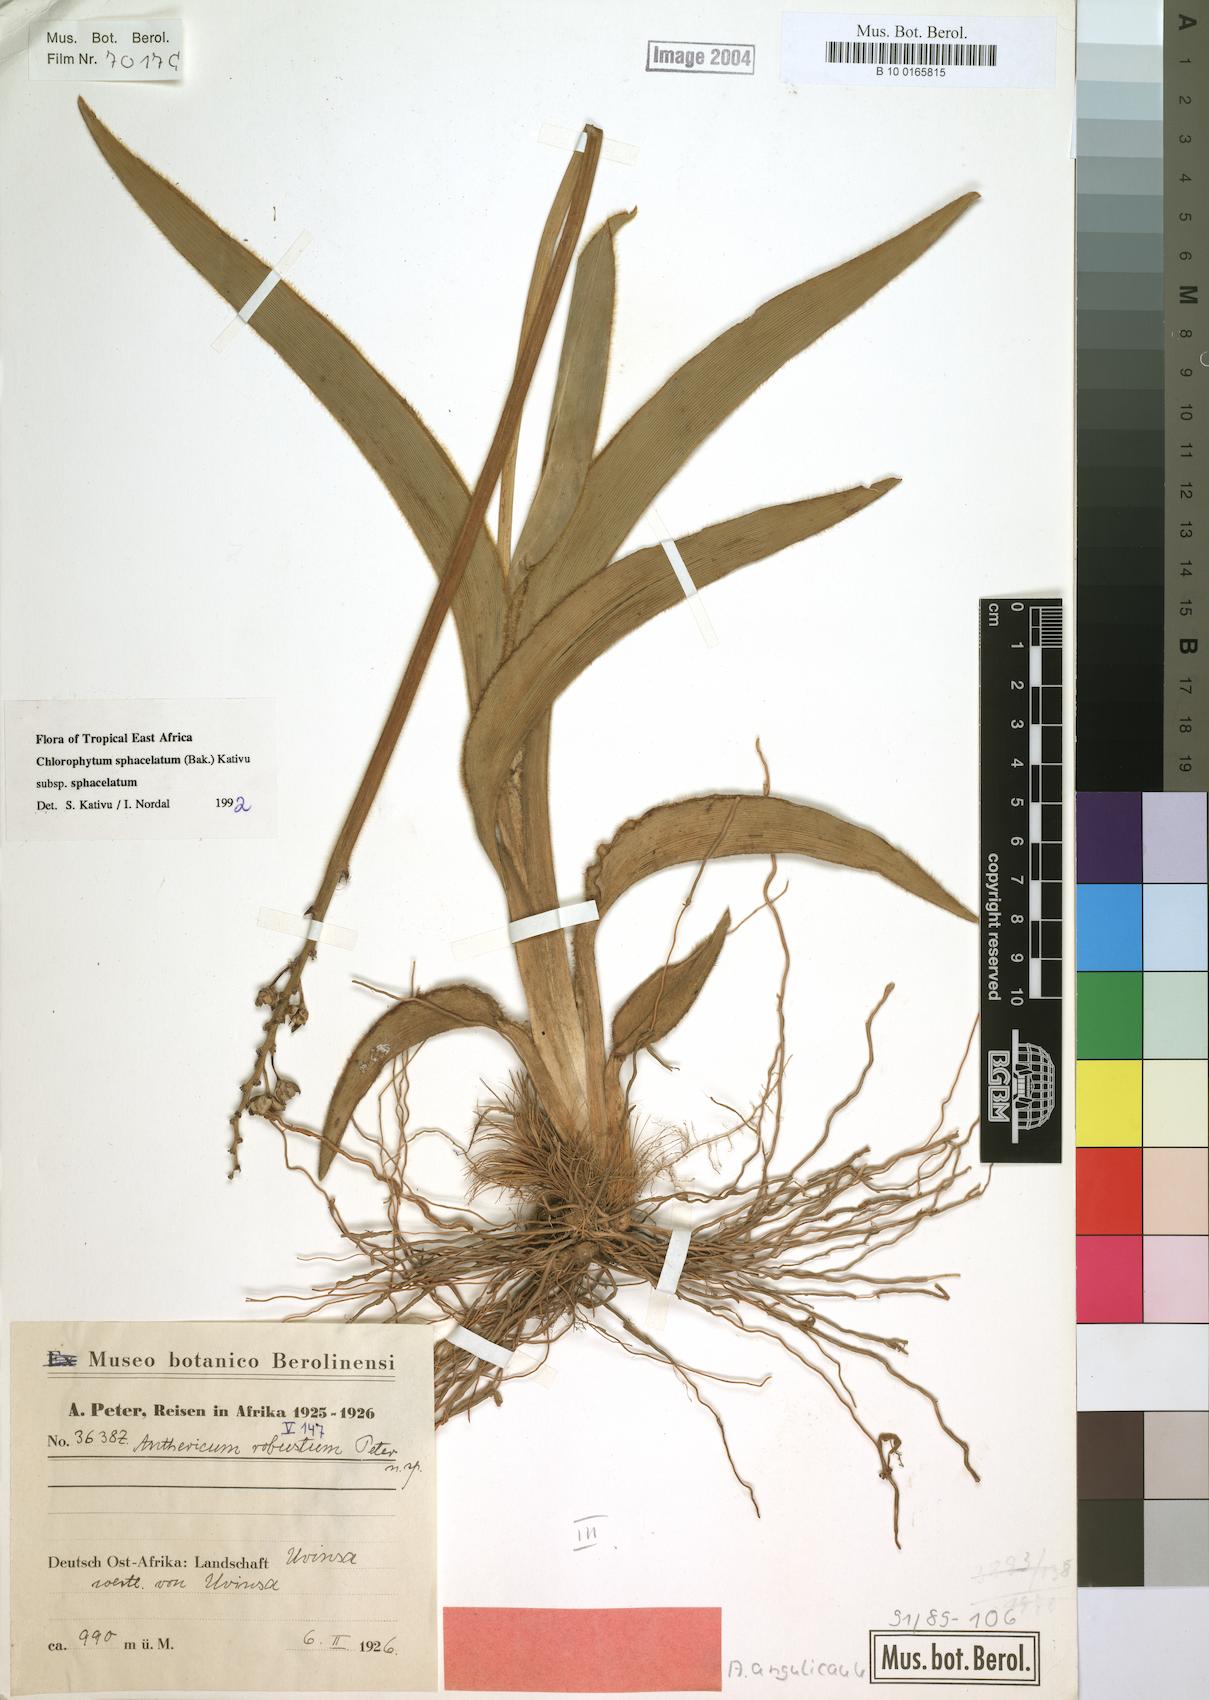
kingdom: Plantae
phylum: Tracheophyta
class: Liliopsida
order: Asparagales
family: Asparagaceae
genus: Chlorophytum
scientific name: Chlorophytum sphacelatum
